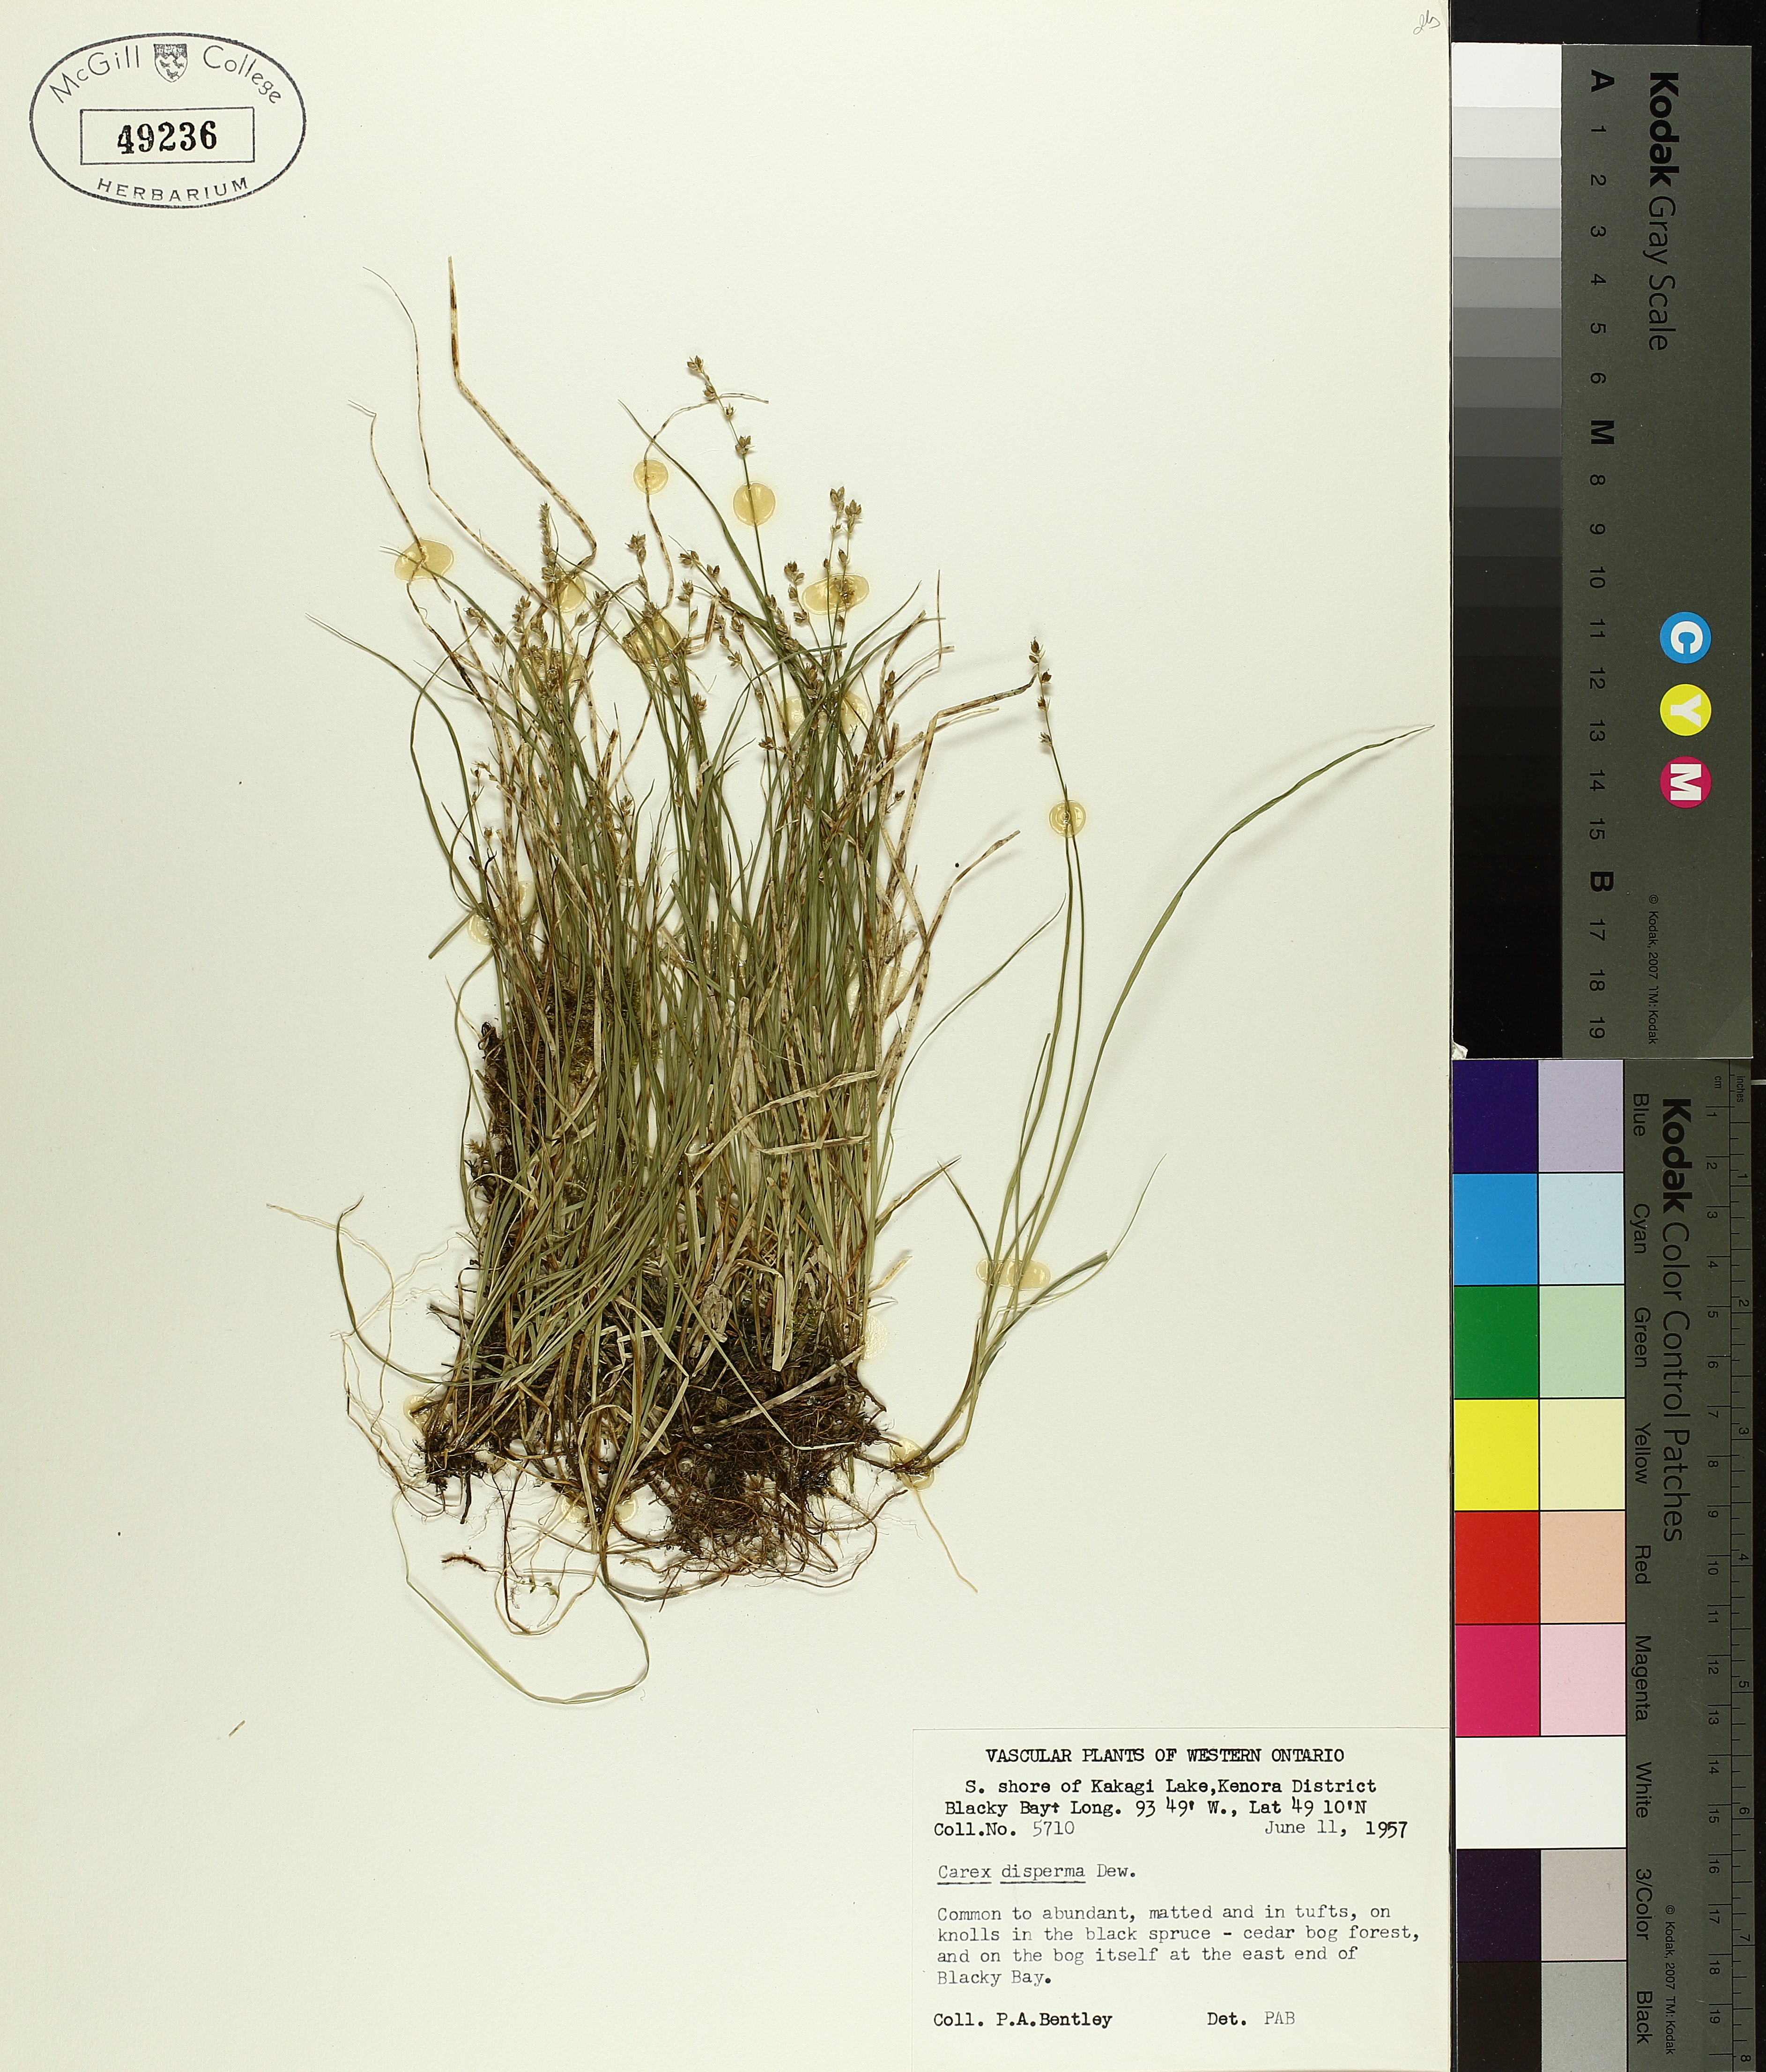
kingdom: Plantae
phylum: Tracheophyta
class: Liliopsida
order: Poales
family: Cyperaceae
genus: Carex
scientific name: Carex disperma
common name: Short-leaved sedge
